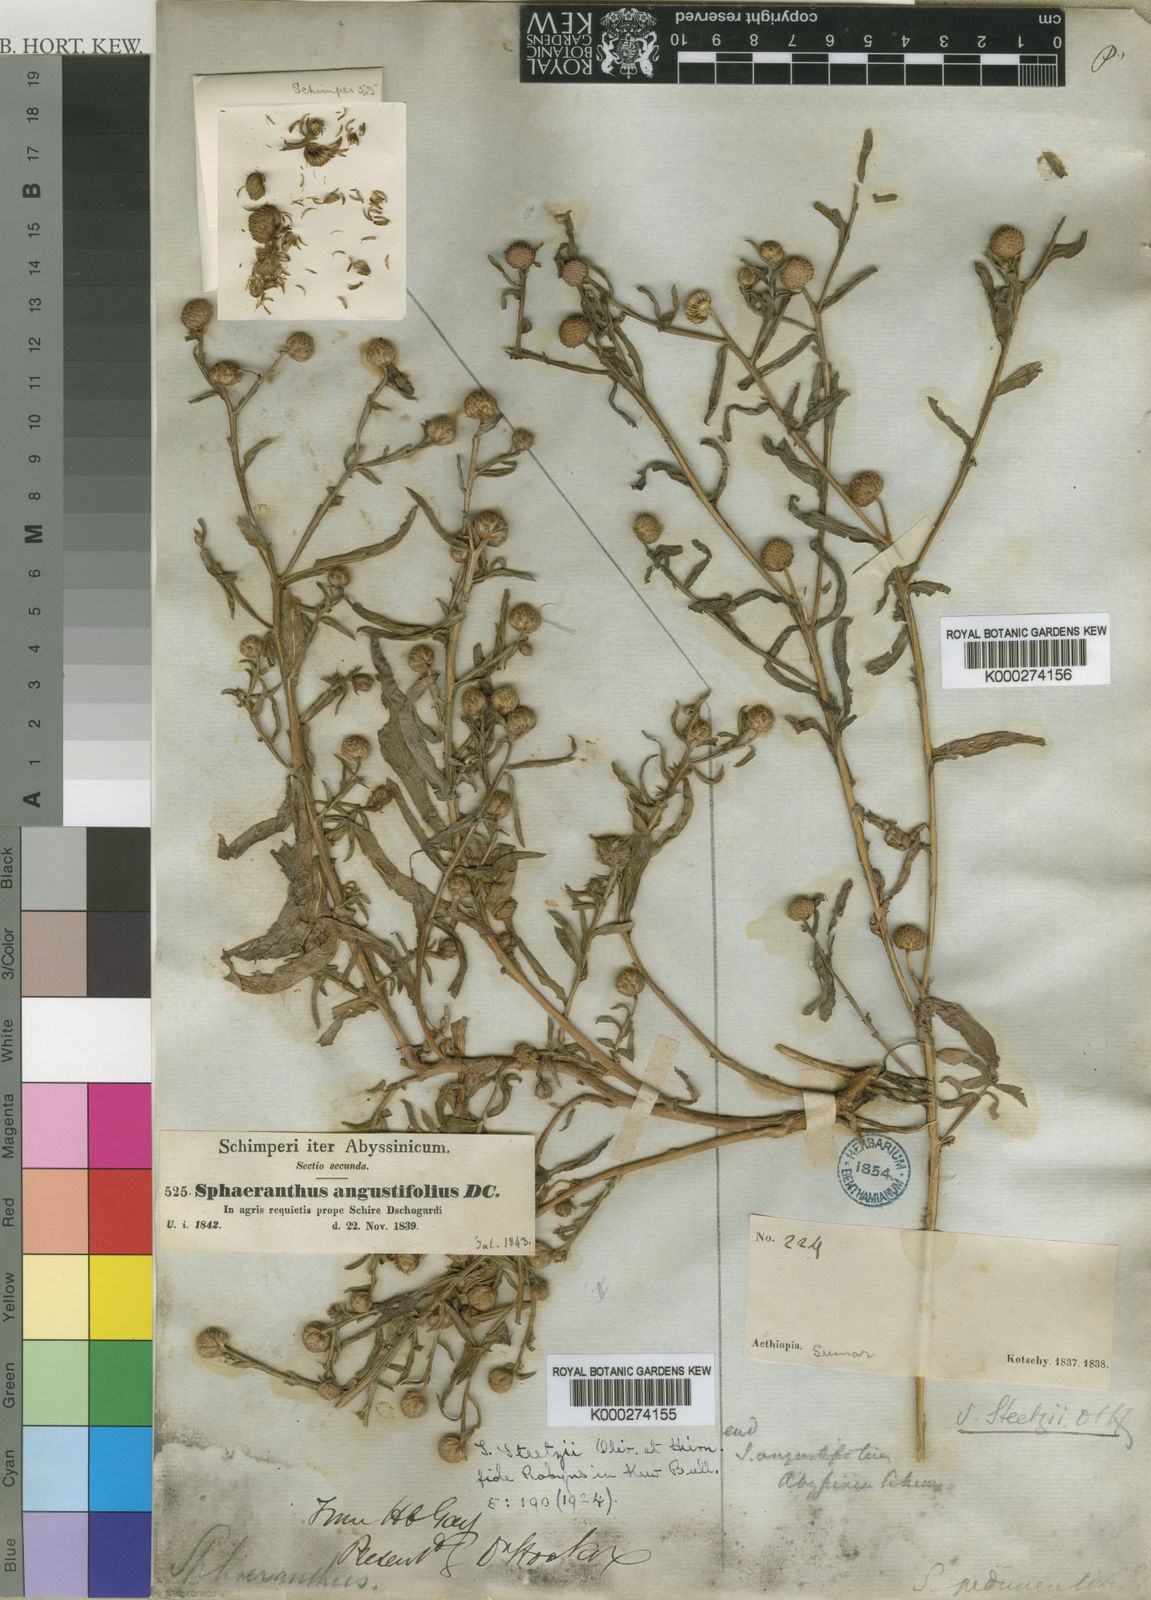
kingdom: Plantae
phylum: Tracheophyta
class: Magnoliopsida
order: Asterales
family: Asteraceae
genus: Sphaeranthus
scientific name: Sphaeranthus steetzii
